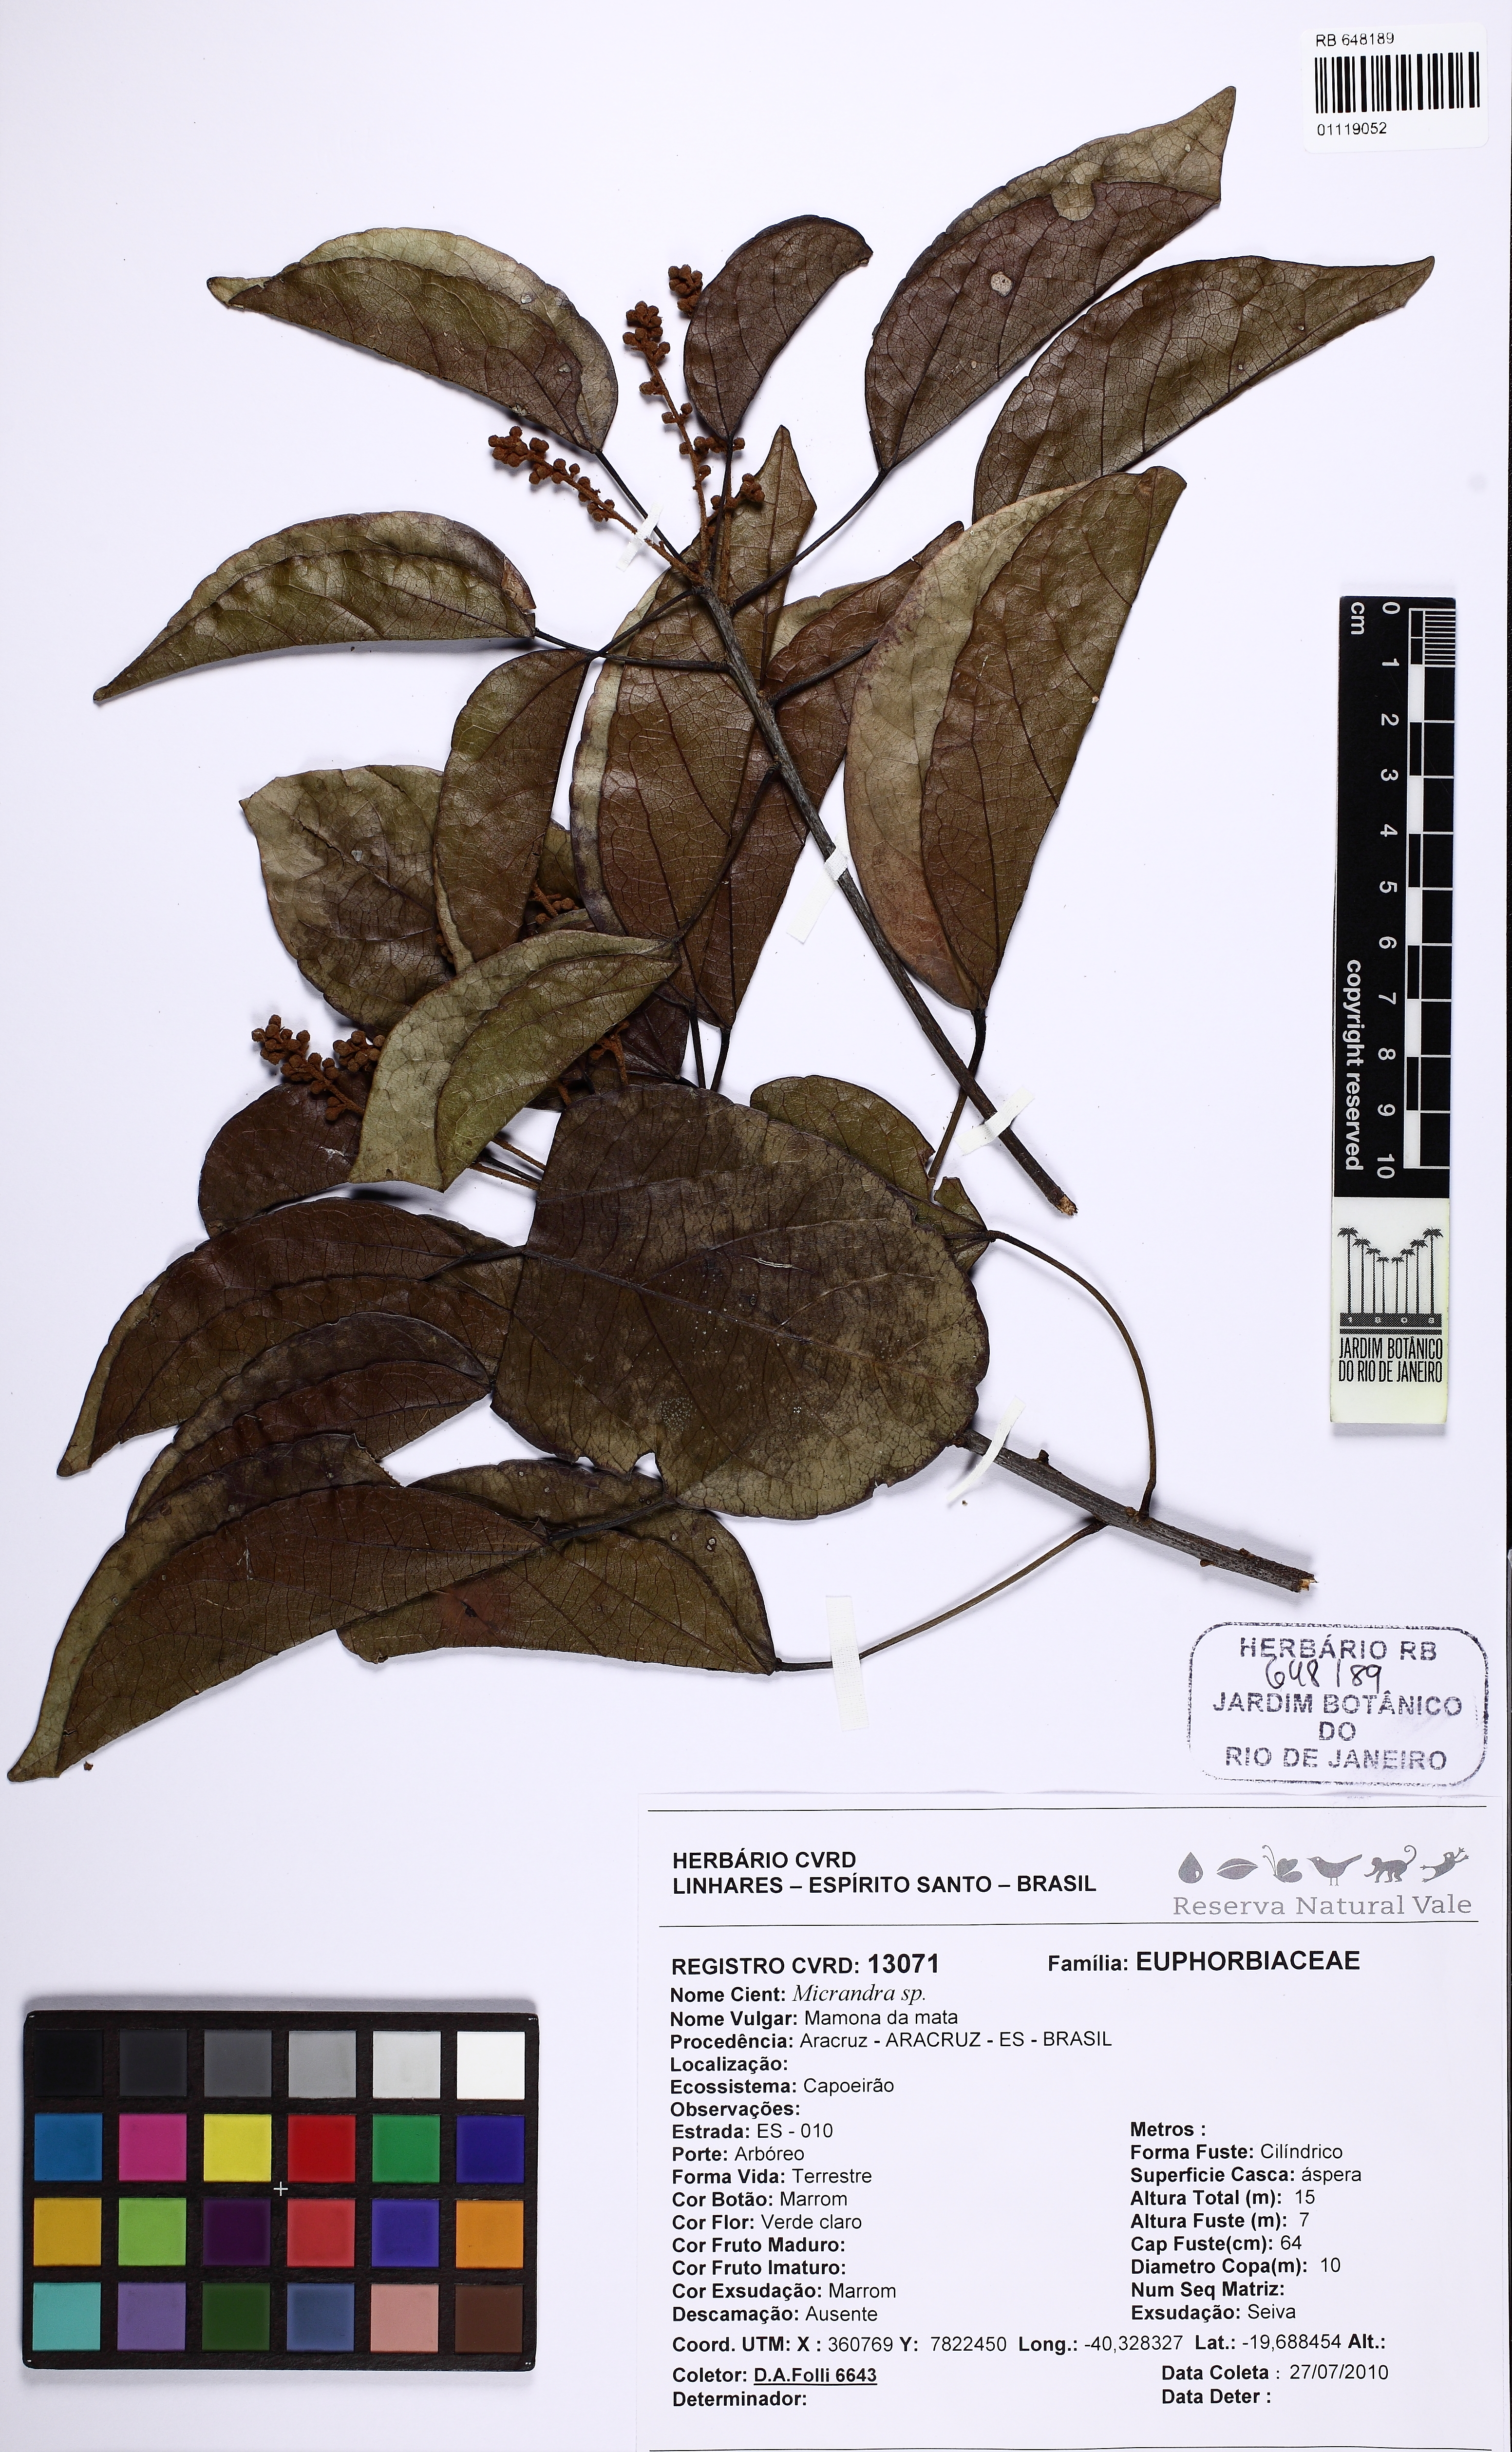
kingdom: Plantae
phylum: Tracheophyta
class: Magnoliopsida
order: Malpighiales
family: Euphorbiaceae
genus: Micrandra
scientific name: Micrandra
